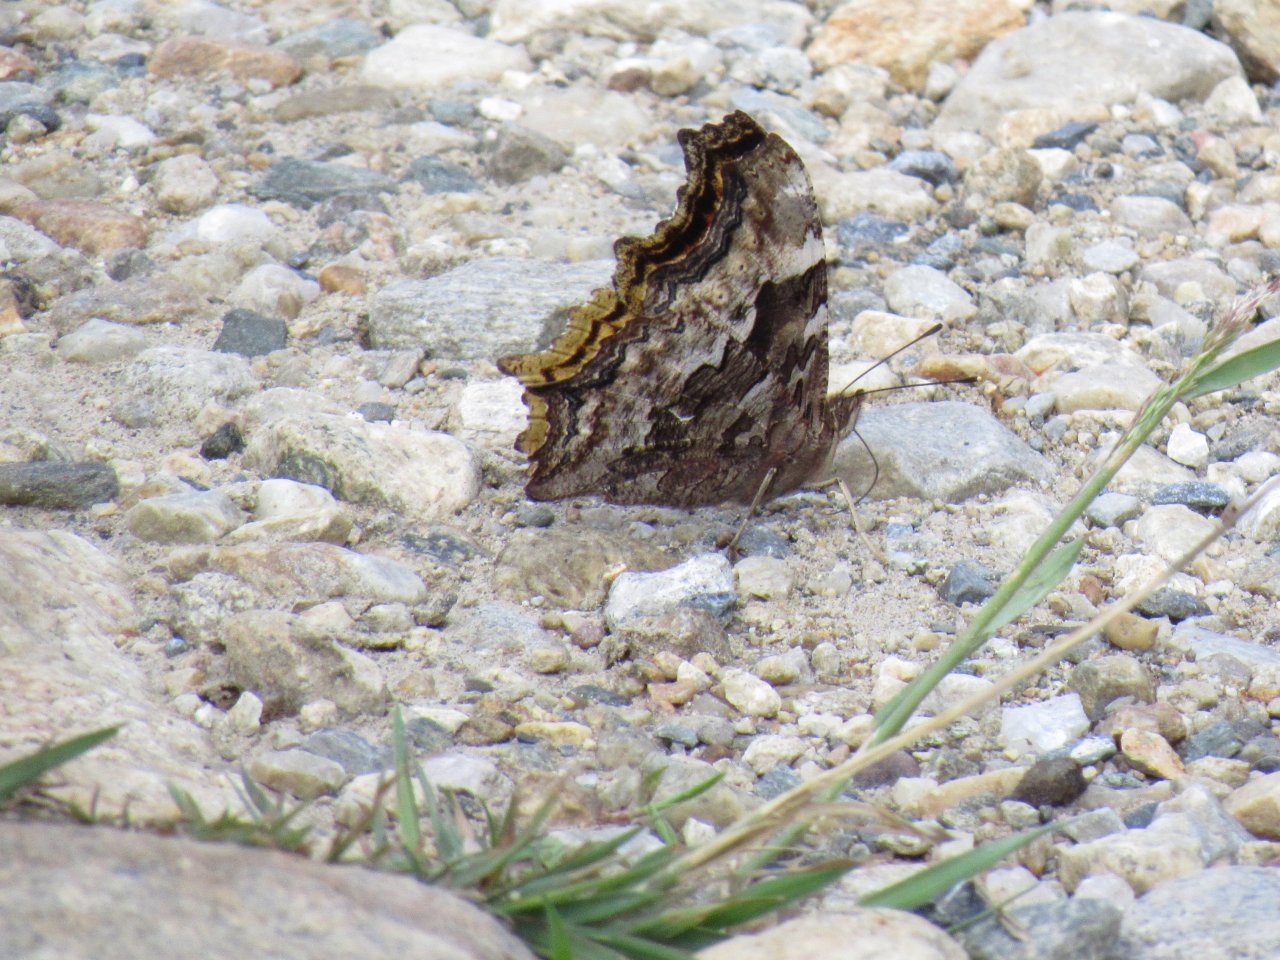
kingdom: Animalia
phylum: Arthropoda
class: Insecta
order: Lepidoptera
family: Nymphalidae
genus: Polygonia
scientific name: Polygonia vaualbum
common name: Compton Tortoiseshell
